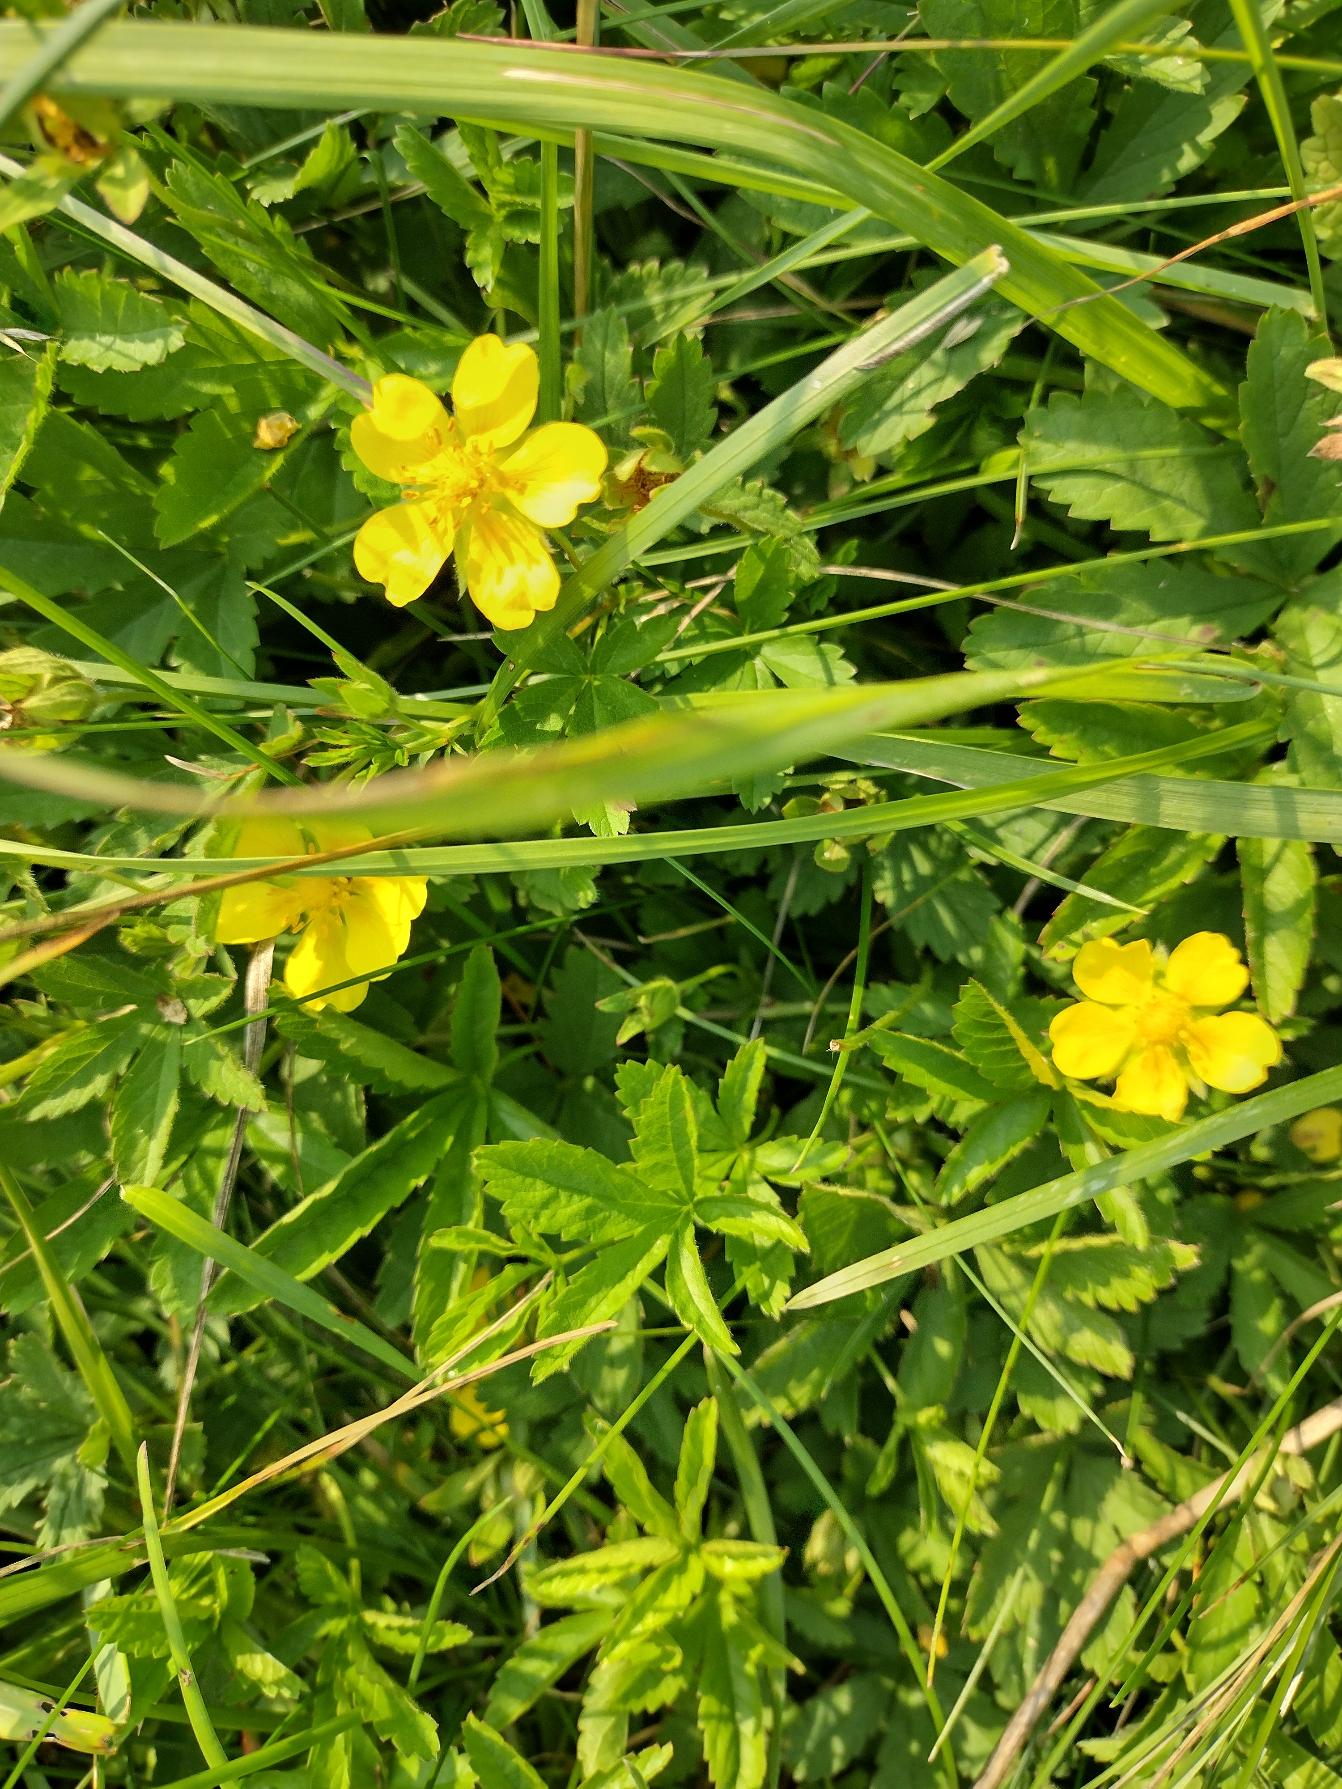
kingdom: Plantae
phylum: Tracheophyta
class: Magnoliopsida
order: Rosales
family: Rosaceae
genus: Potentilla
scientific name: Potentilla reptans
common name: Krybende potentil
